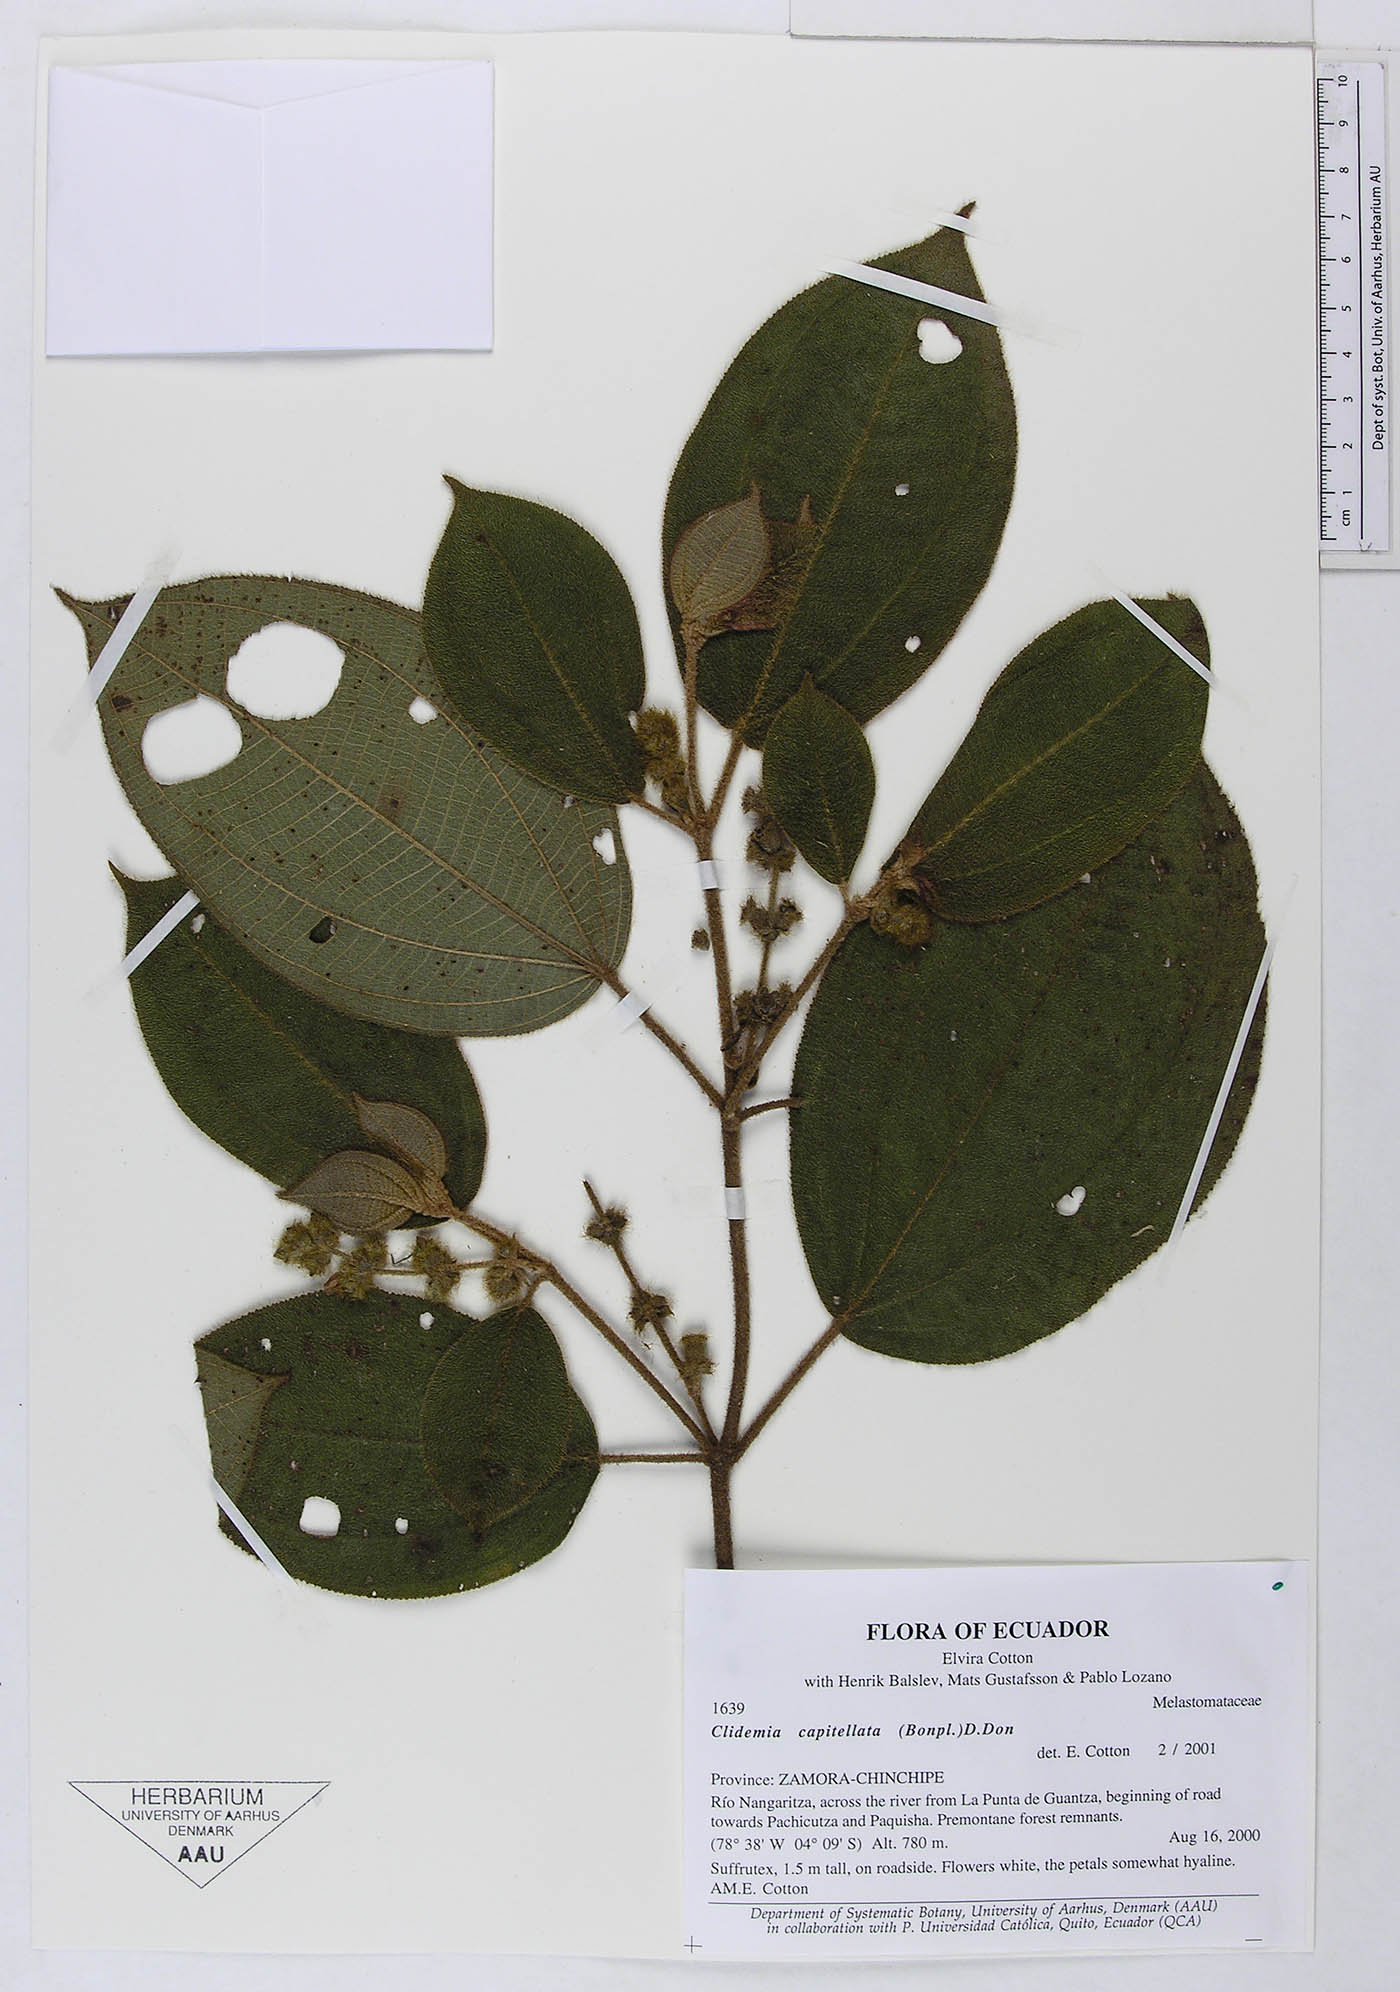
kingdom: Plantae
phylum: Tracheophyta
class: Magnoliopsida
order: Myrtales
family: Melastomataceae
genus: Desmoscelis
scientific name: Desmoscelis villosa
